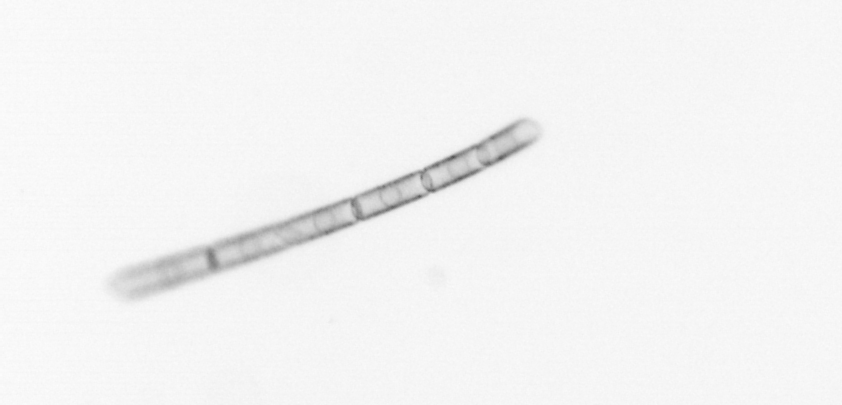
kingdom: Chromista
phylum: Ochrophyta
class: Bacillariophyceae
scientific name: Bacillariophyceae
